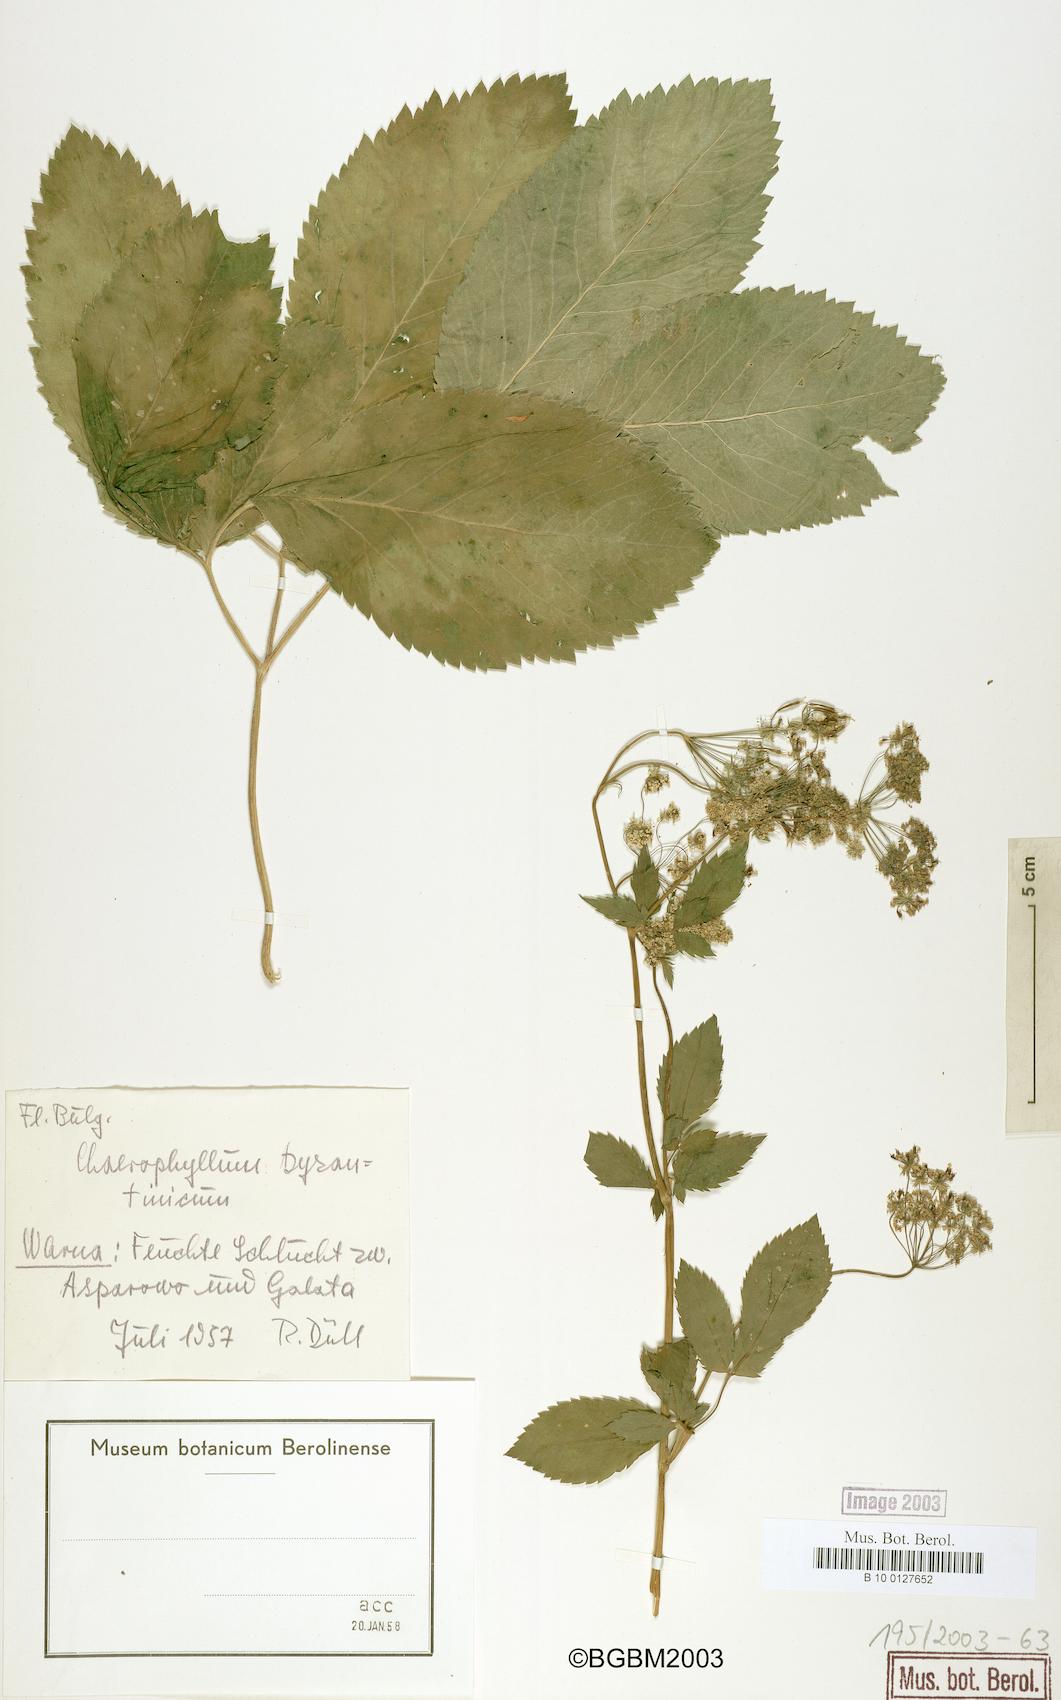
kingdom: Plantae
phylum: Tracheophyta
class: Magnoliopsida
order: Apiales
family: Apiaceae
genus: Chaerophyllum
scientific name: Chaerophyllum byzantinum
